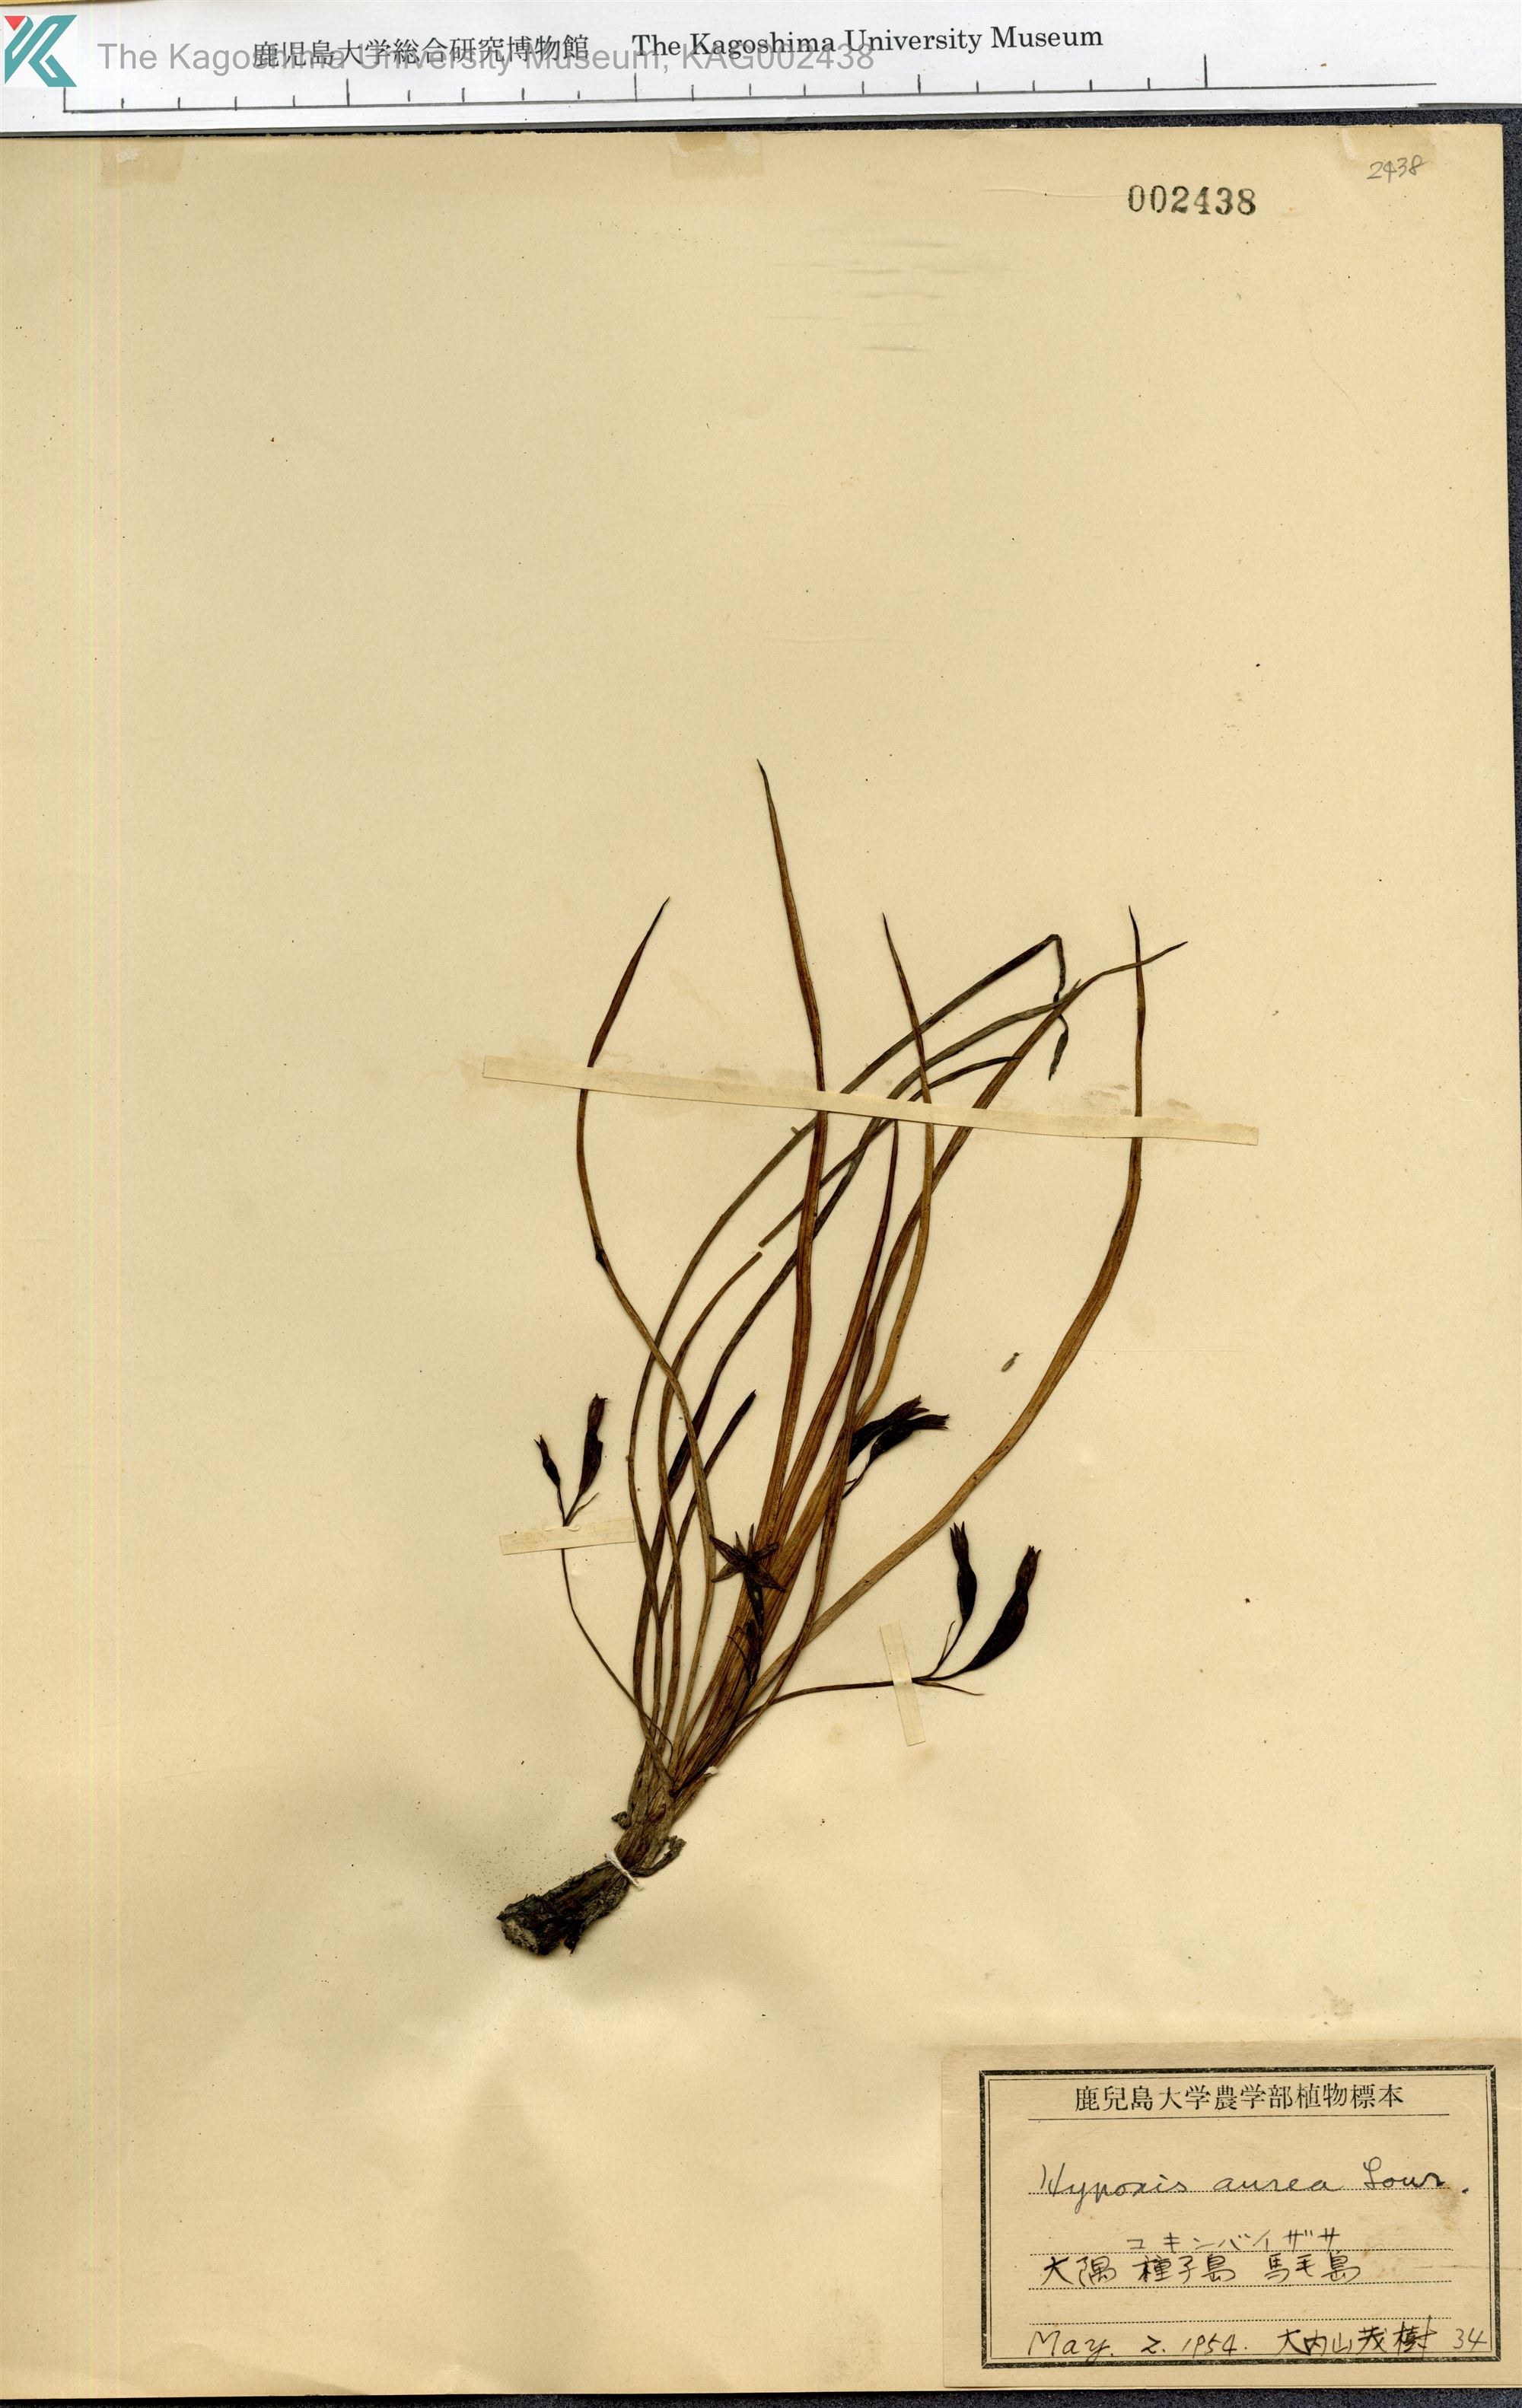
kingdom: Plantae
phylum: Tracheophyta
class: Liliopsida
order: Asparagales
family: Hypoxidaceae
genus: Hypoxis
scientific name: Hypoxis aurea
